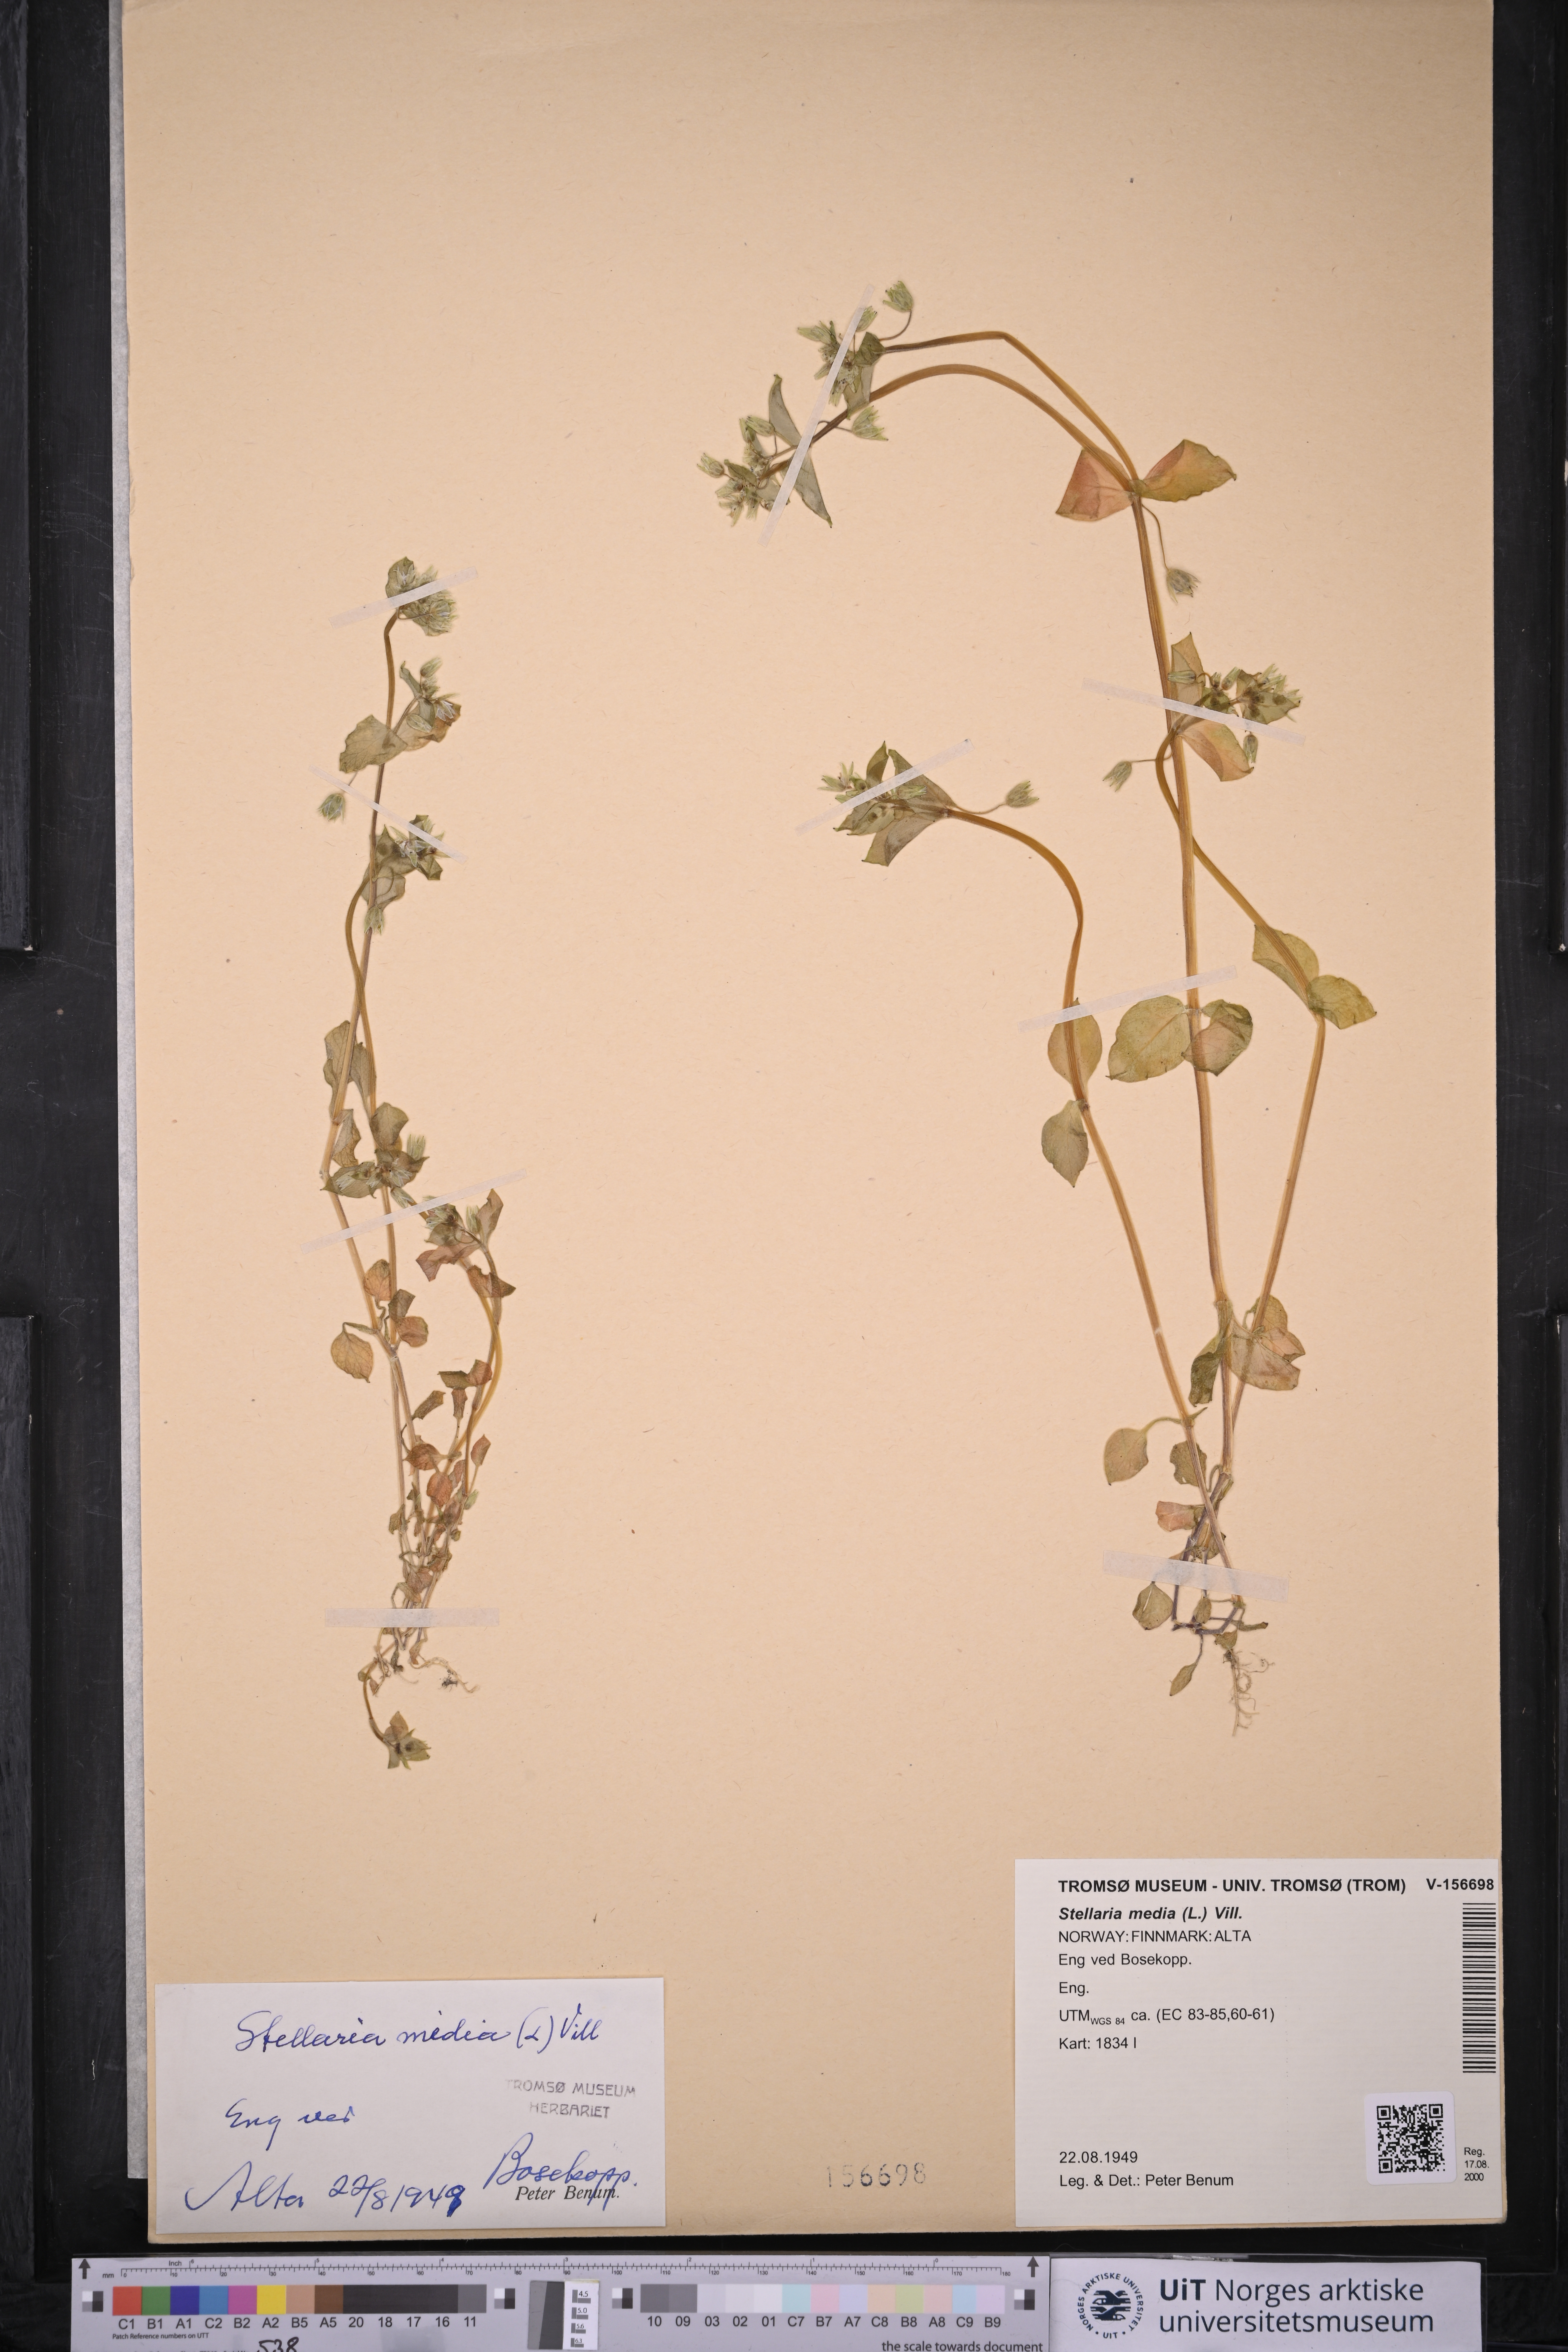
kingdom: Plantae
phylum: Tracheophyta
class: Magnoliopsida
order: Caryophyllales
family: Caryophyllaceae
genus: Stellaria
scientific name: Stellaria media
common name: Common chickweed
